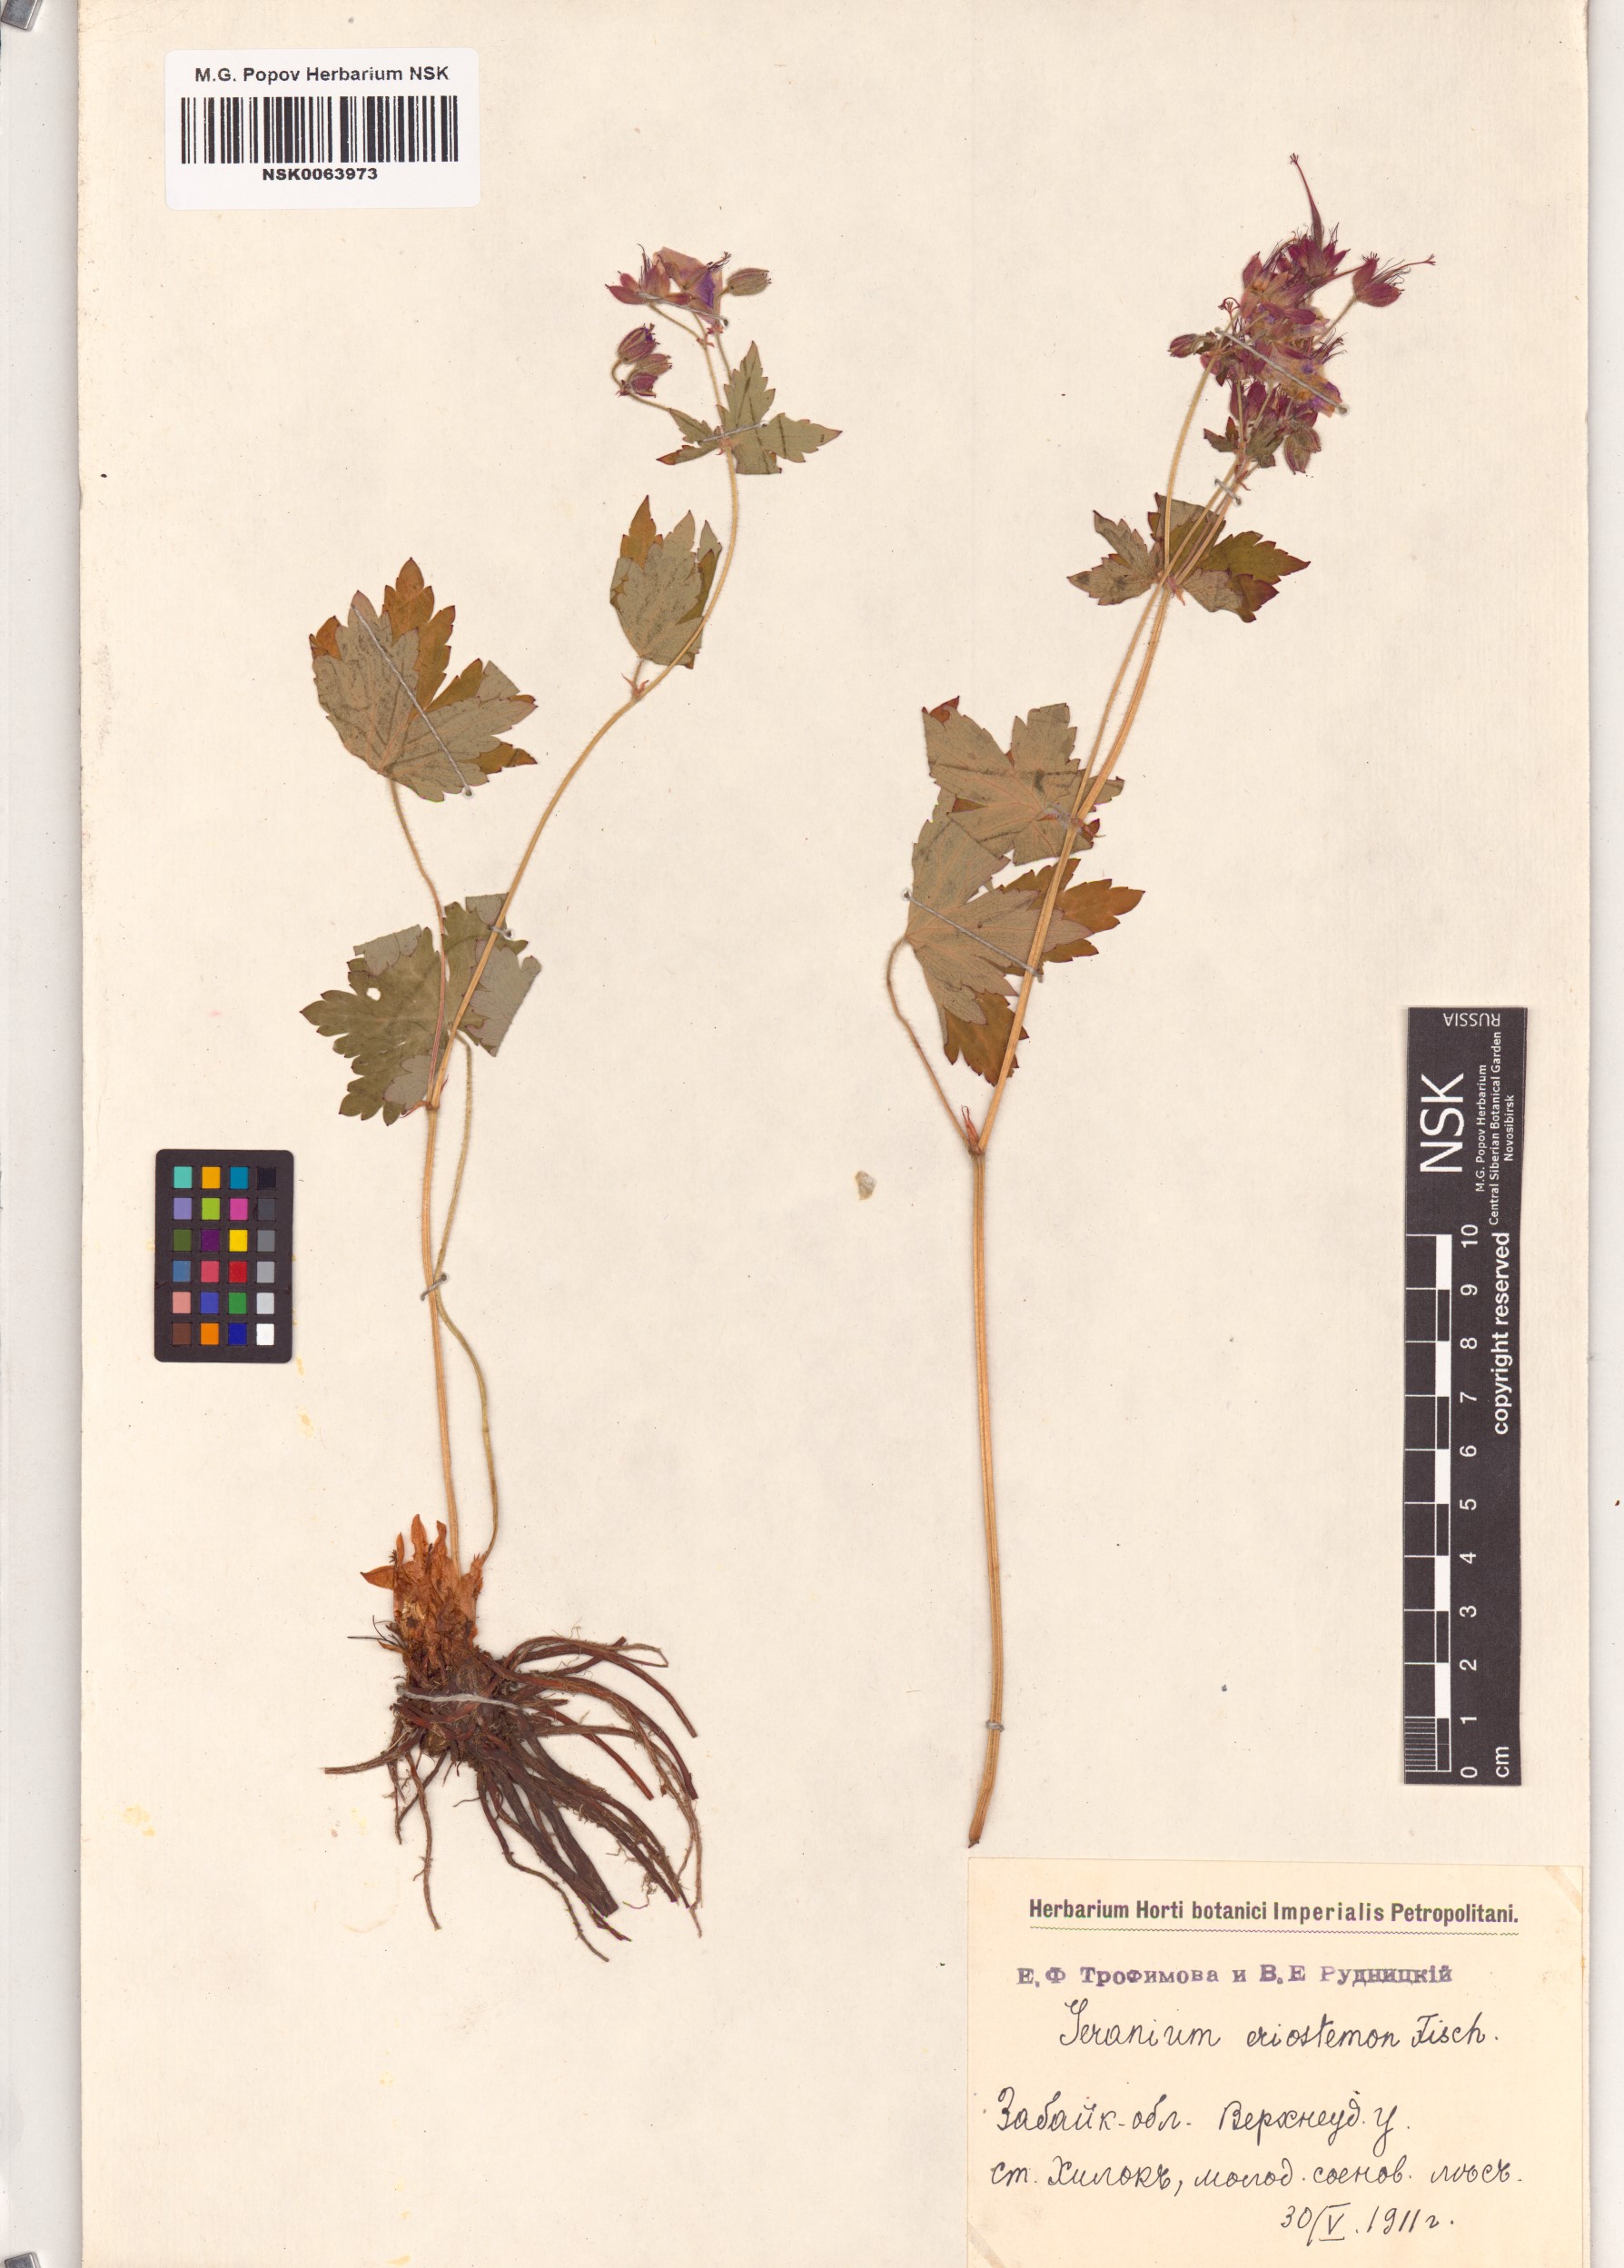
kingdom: Plantae
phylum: Tracheophyta
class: Magnoliopsida
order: Geraniales
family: Geraniaceae
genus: Geranium
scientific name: Geranium platyanthum
